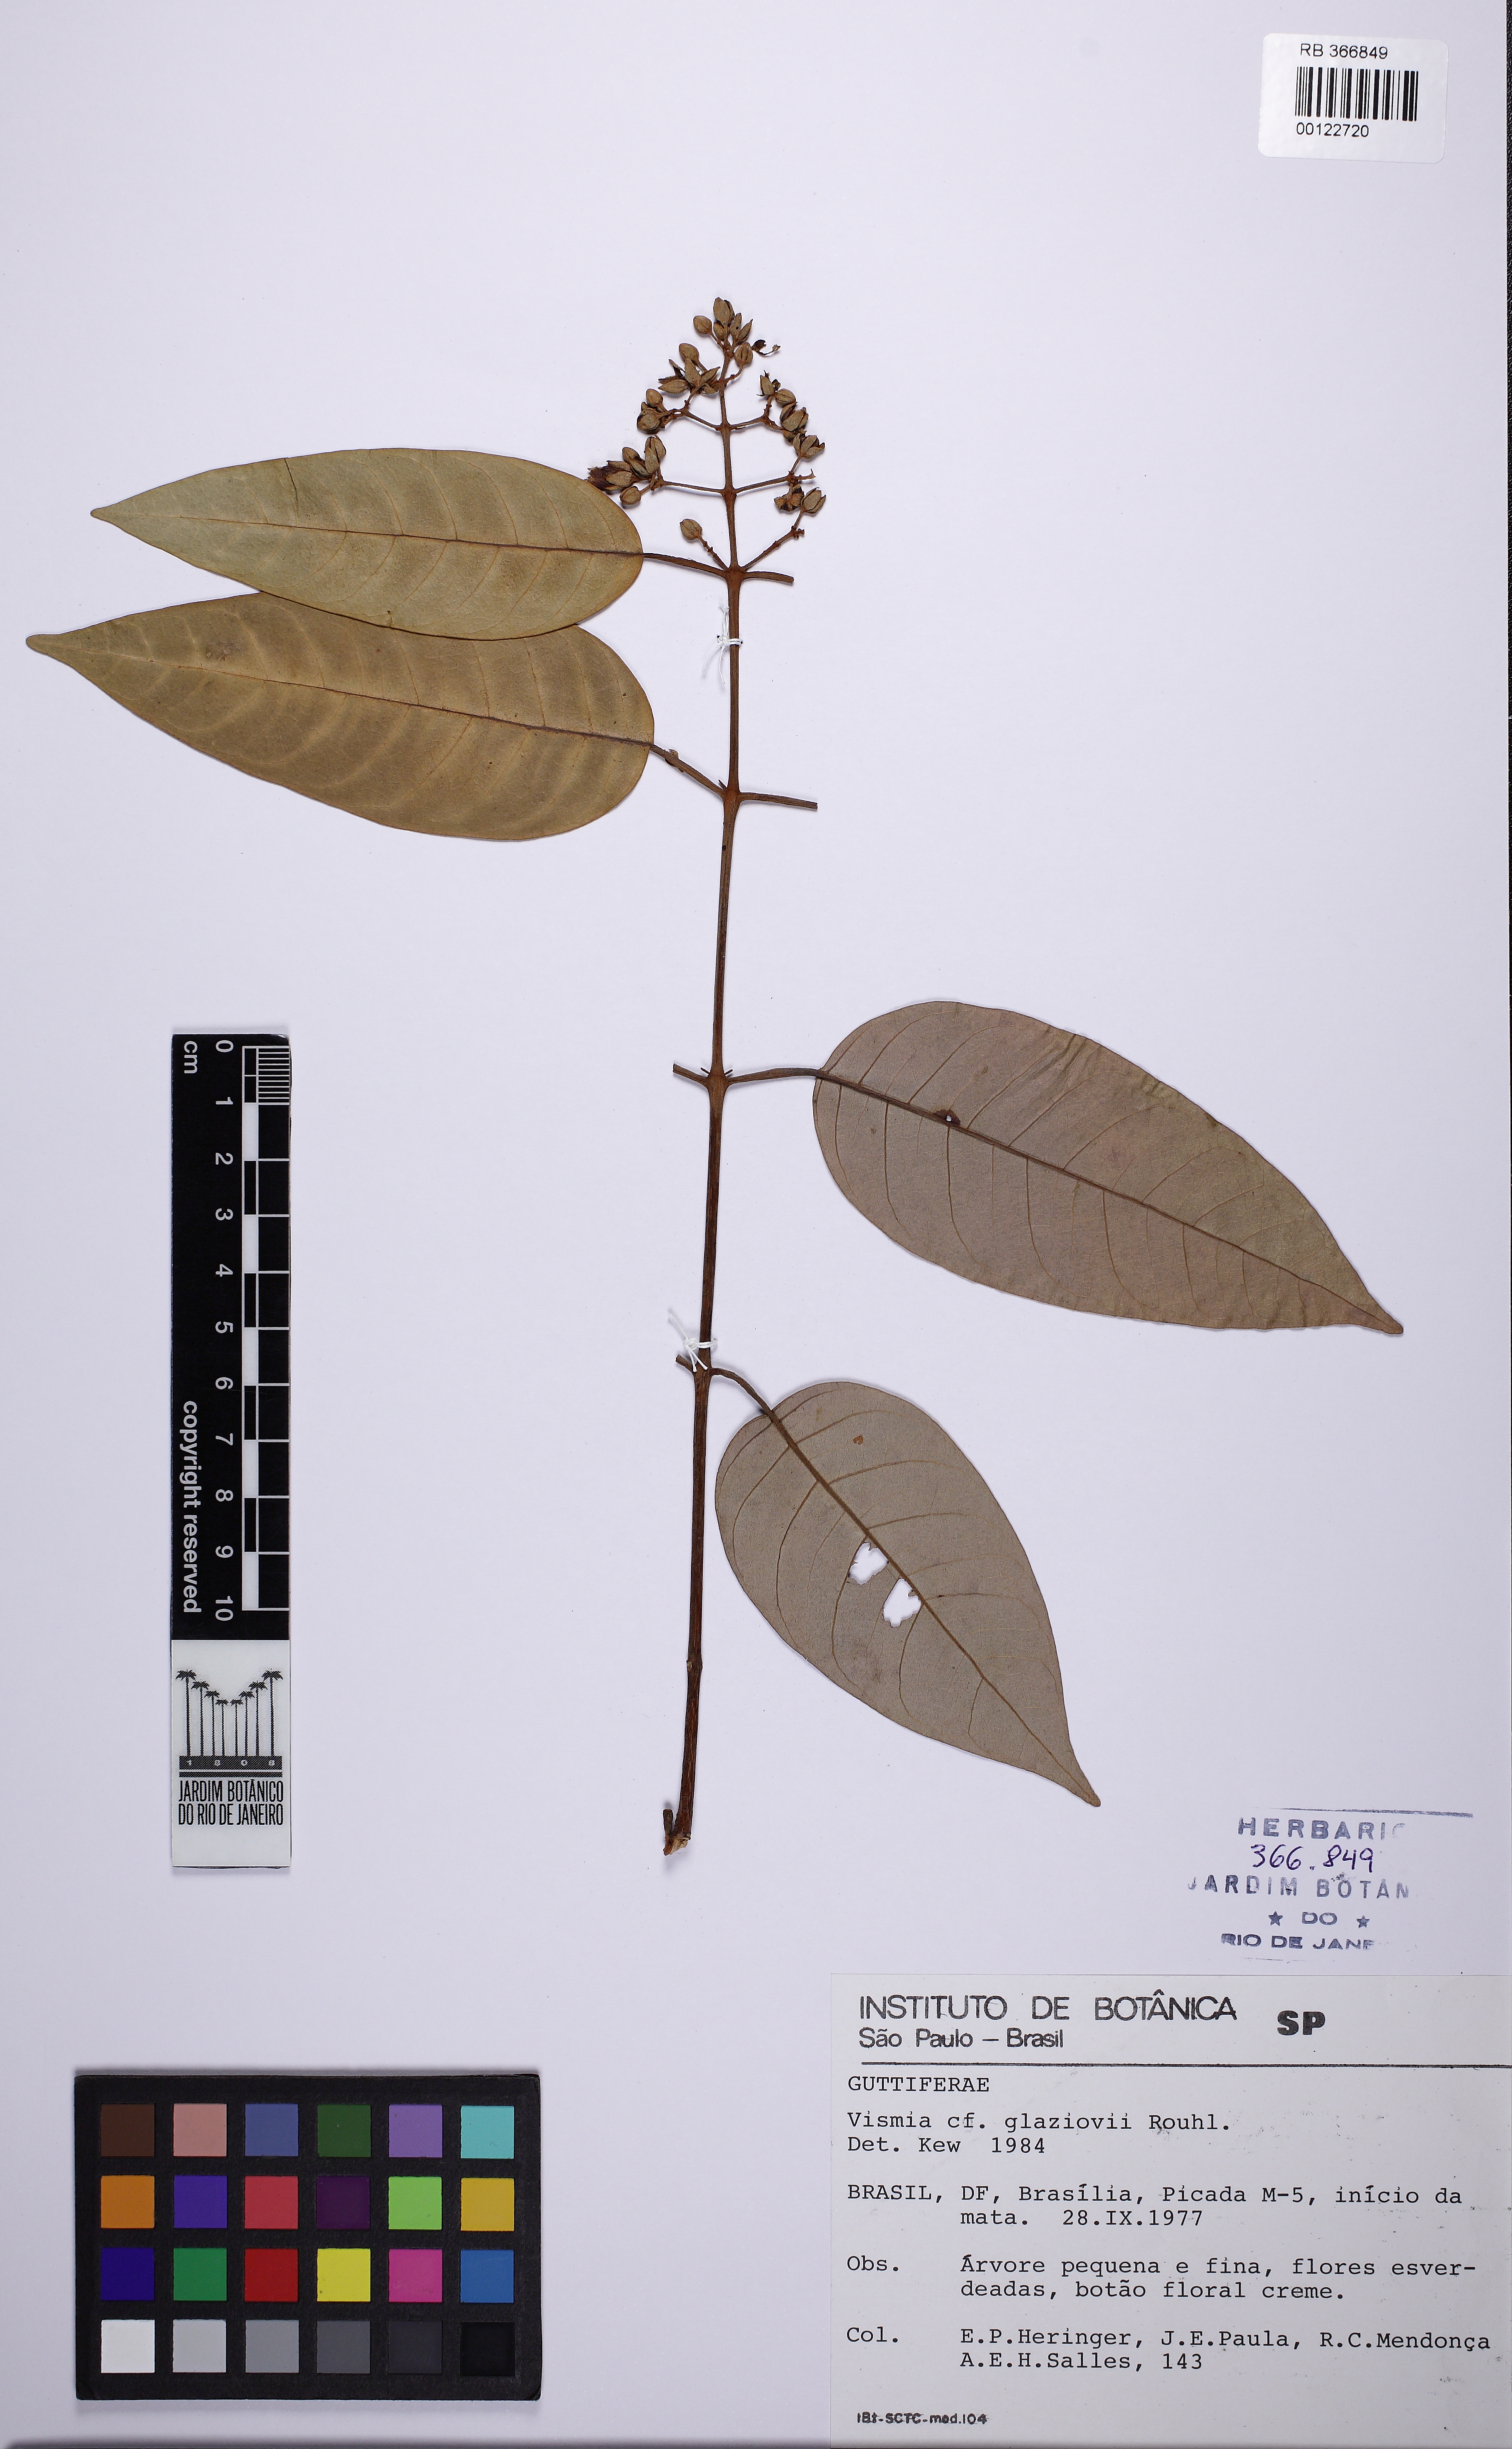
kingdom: Plantae
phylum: Tracheophyta
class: Magnoliopsida
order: Malpighiales
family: Hypericaceae
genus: Vismia
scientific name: Vismia gracilis
